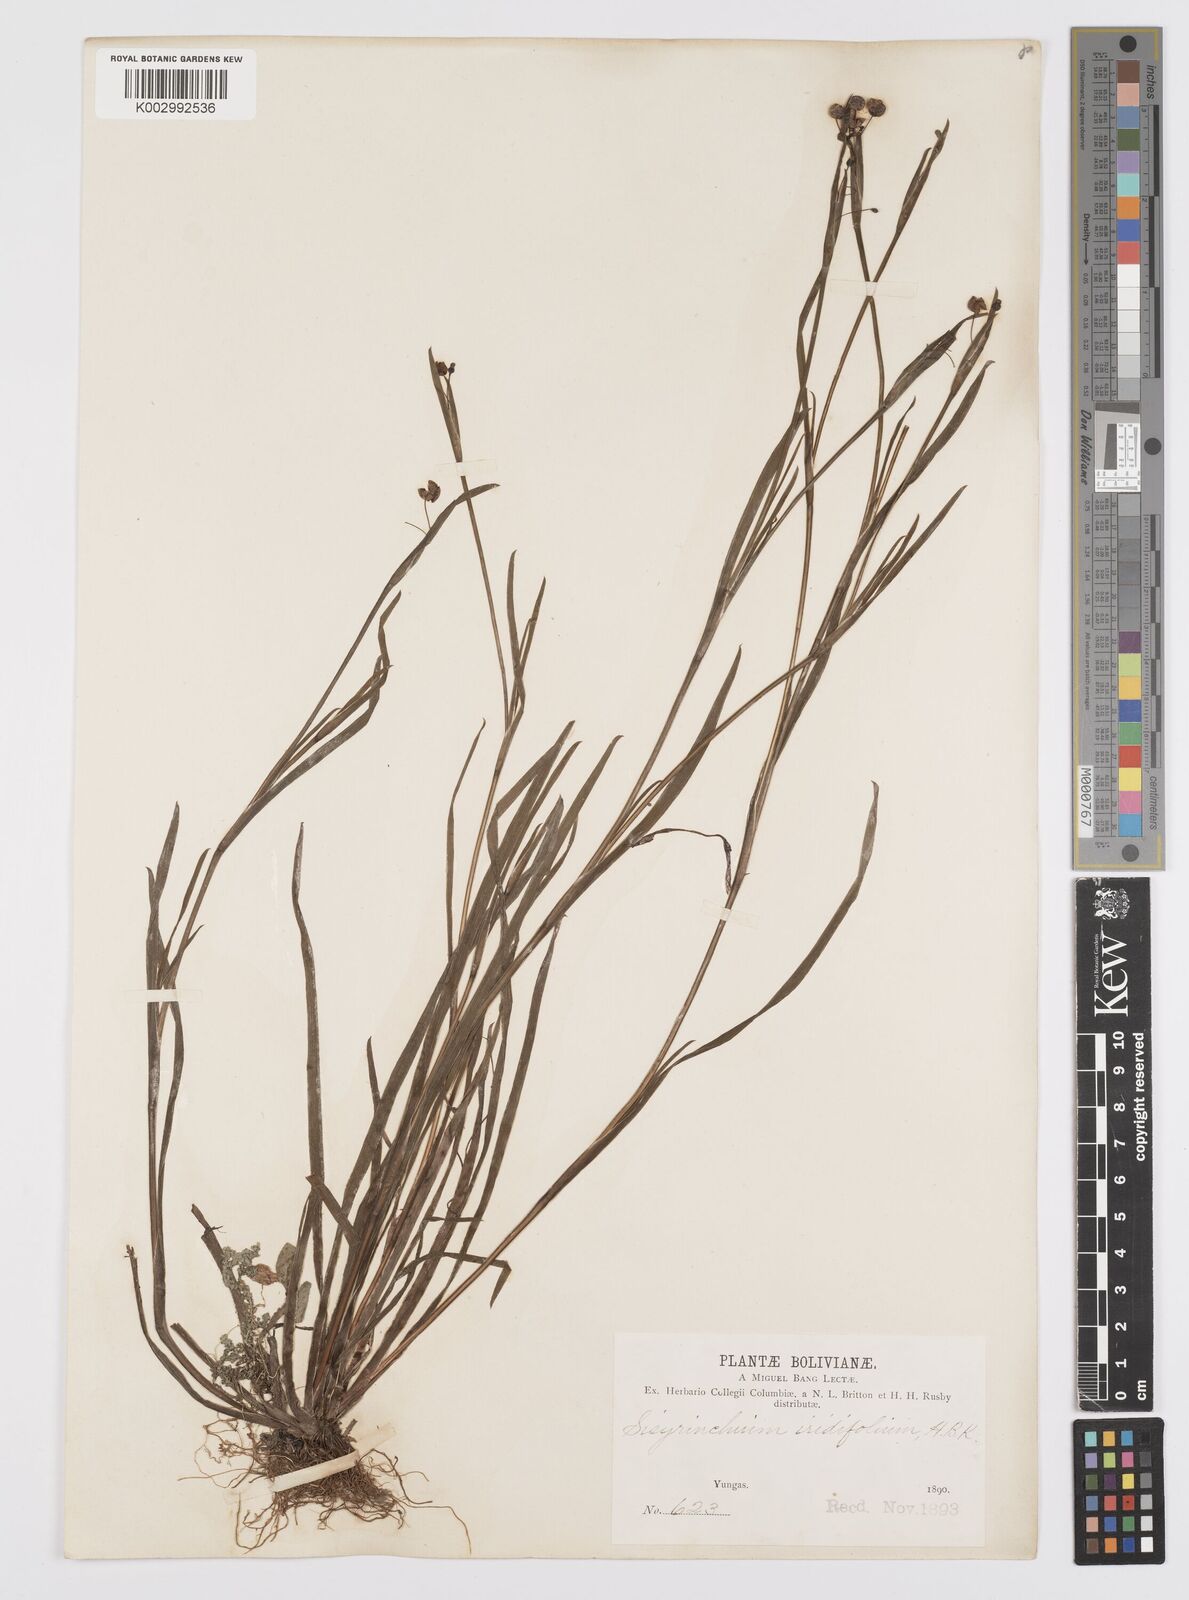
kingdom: Plantae
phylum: Tracheophyta
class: Liliopsida
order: Asparagales
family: Iridaceae
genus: Sisyrinchium
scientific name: Sisyrinchium micranthum
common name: Bermuda pigroot
